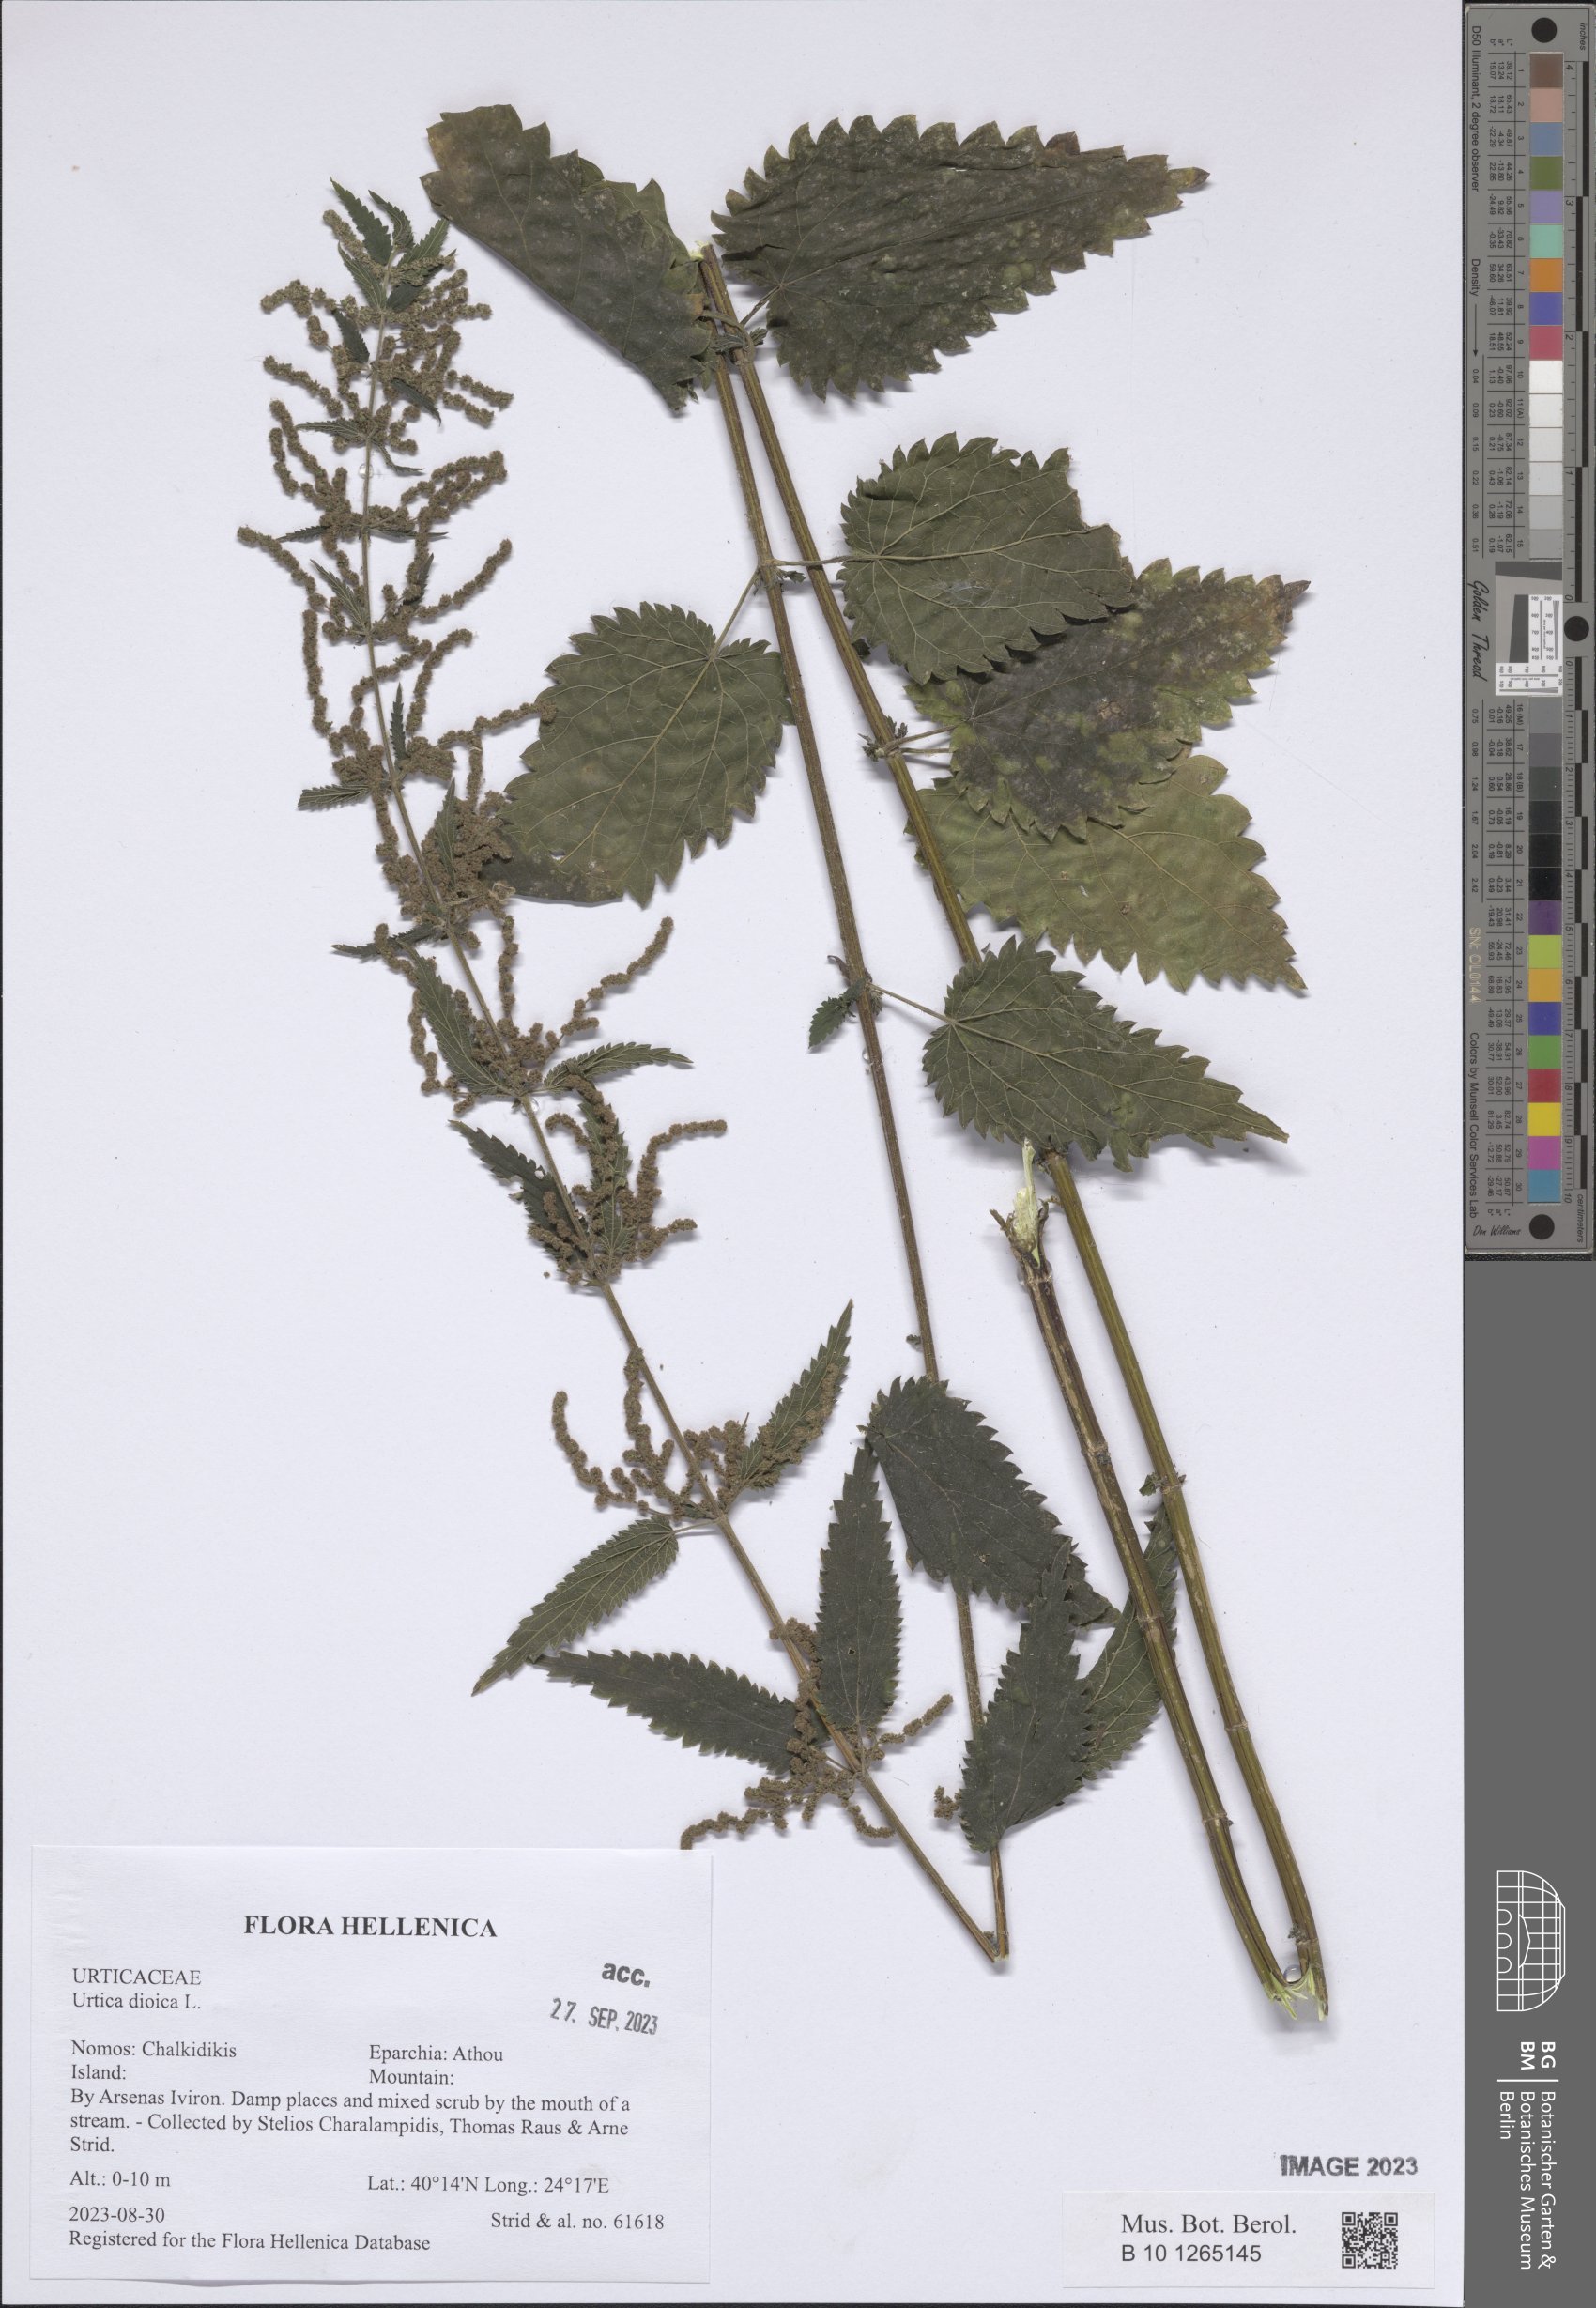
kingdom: Plantae
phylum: Tracheophyta
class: Magnoliopsida
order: Rosales
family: Urticaceae
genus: Urtica
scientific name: Urtica dioica
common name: Common nettle
